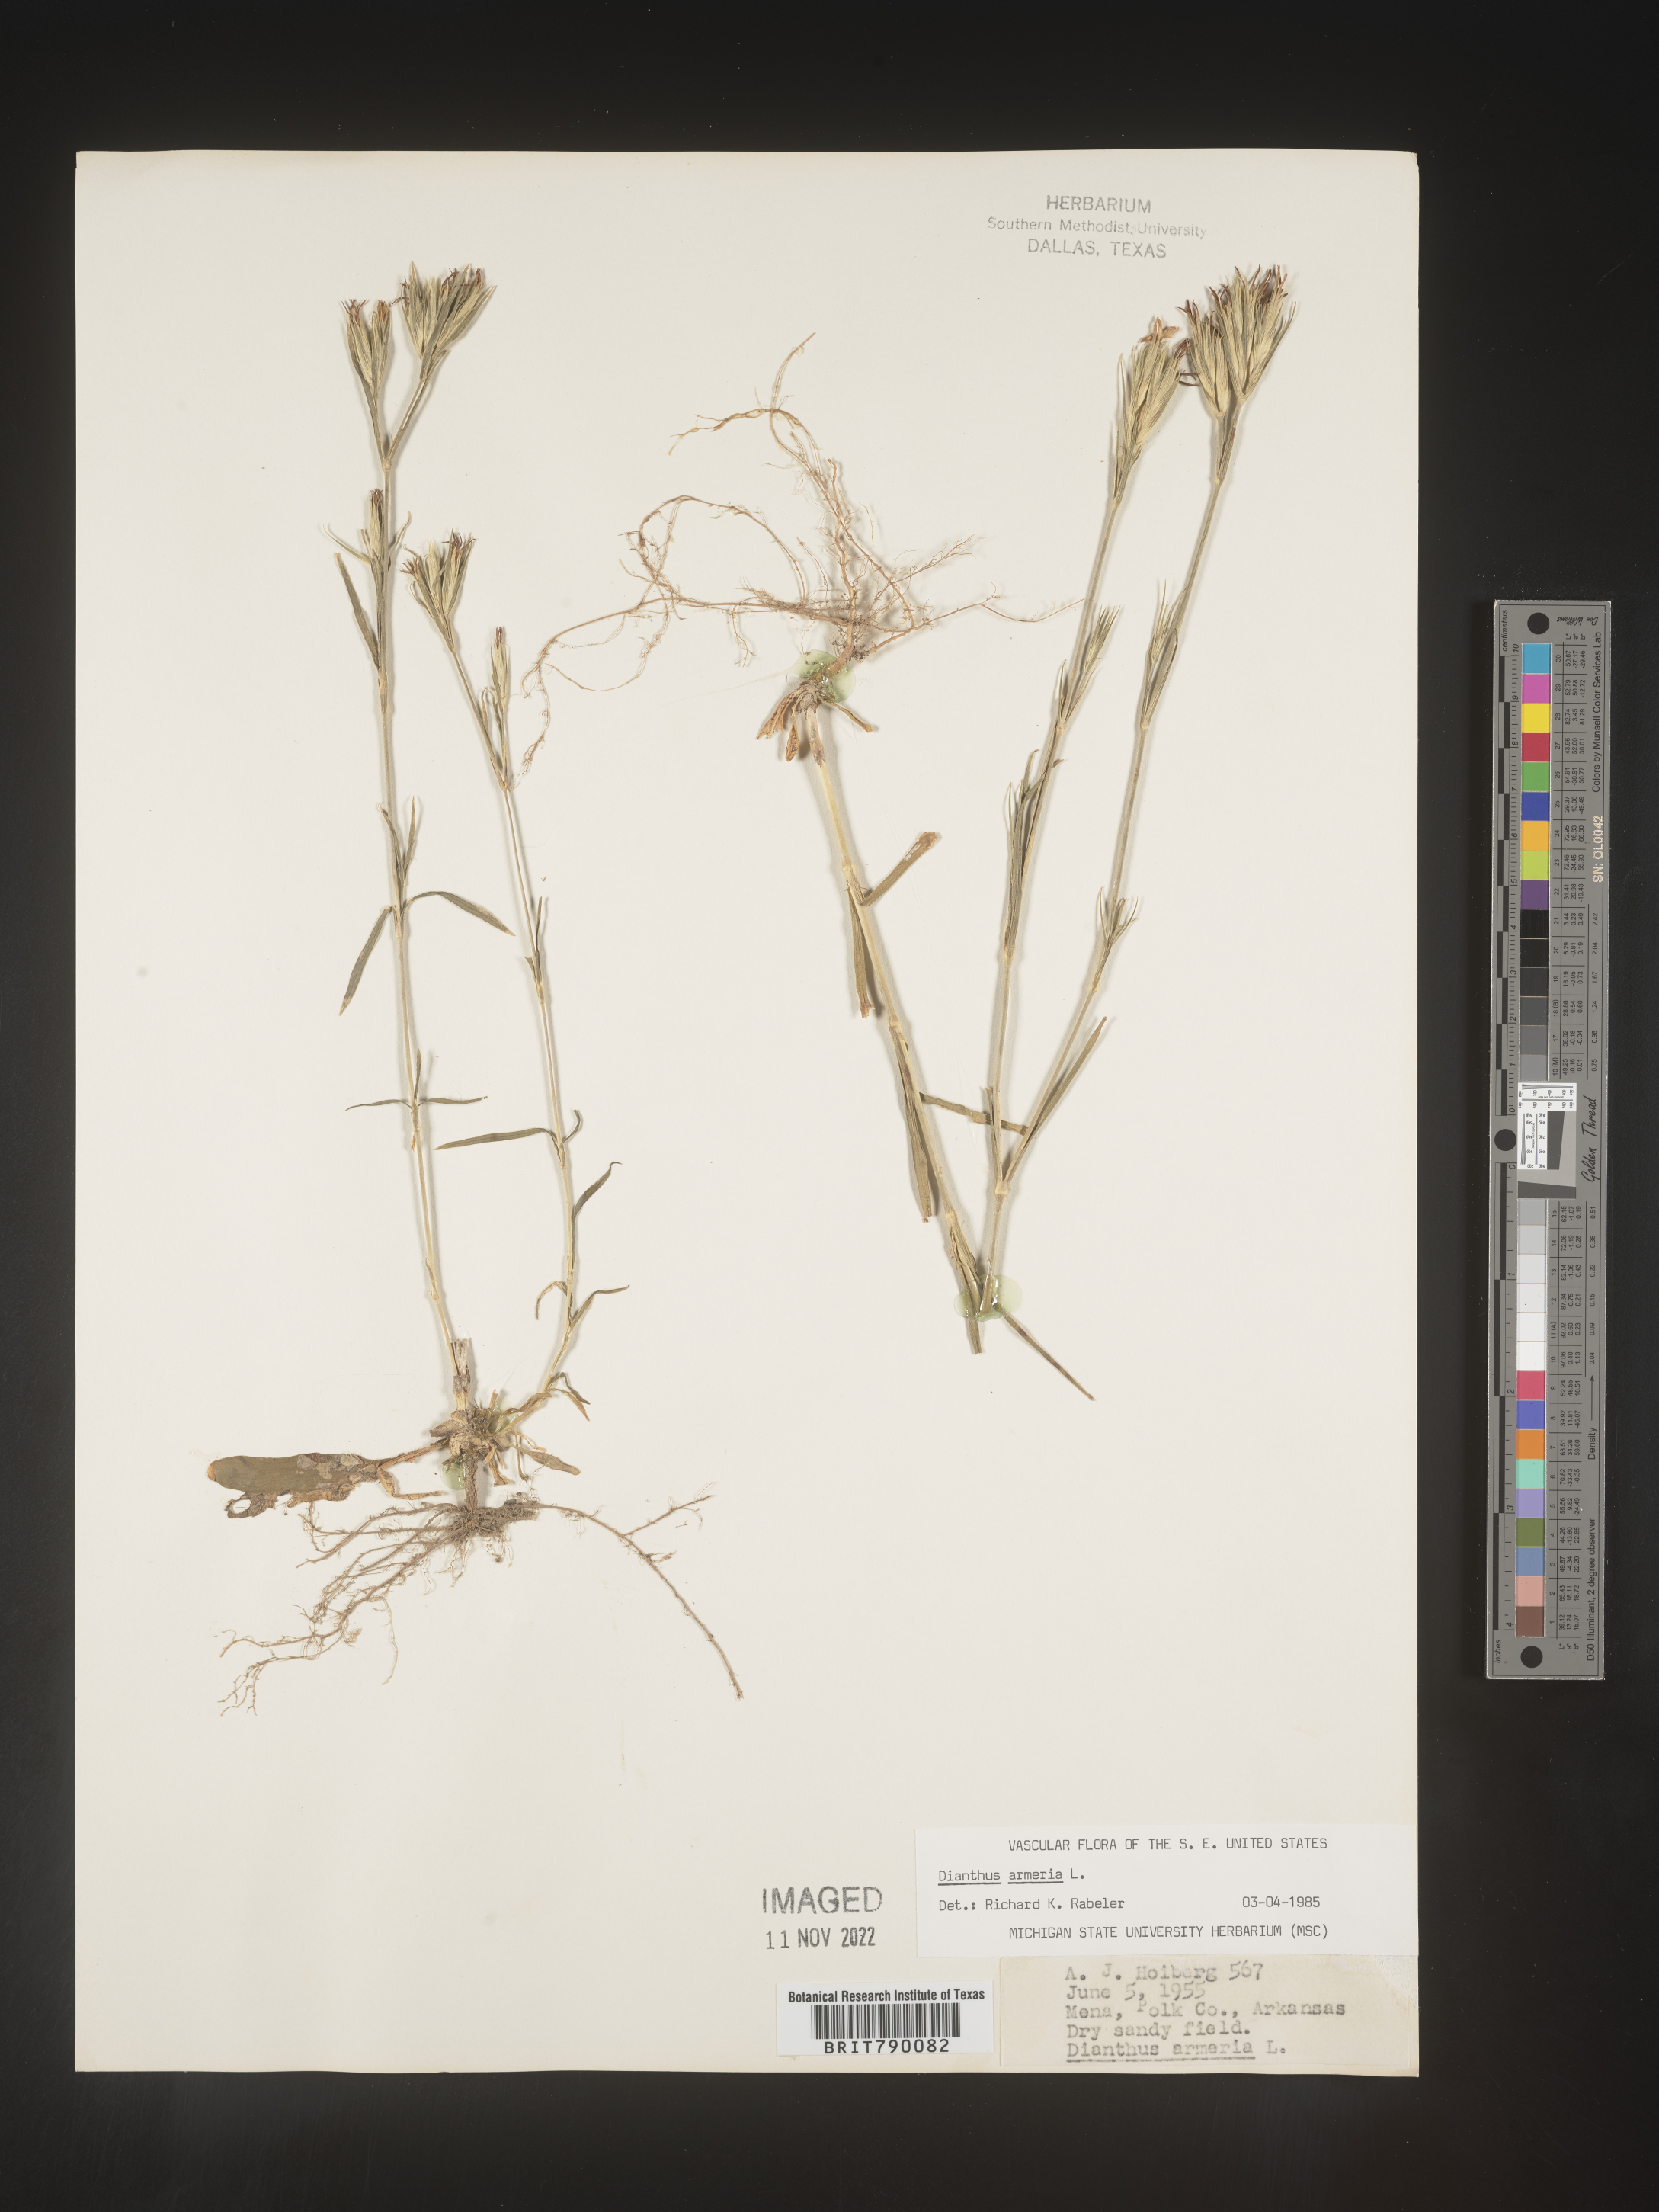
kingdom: Plantae
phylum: Tracheophyta
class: Magnoliopsida
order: Caryophyllales
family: Caryophyllaceae
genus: Dianthus
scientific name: Dianthus armeria
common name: Deptford pink
